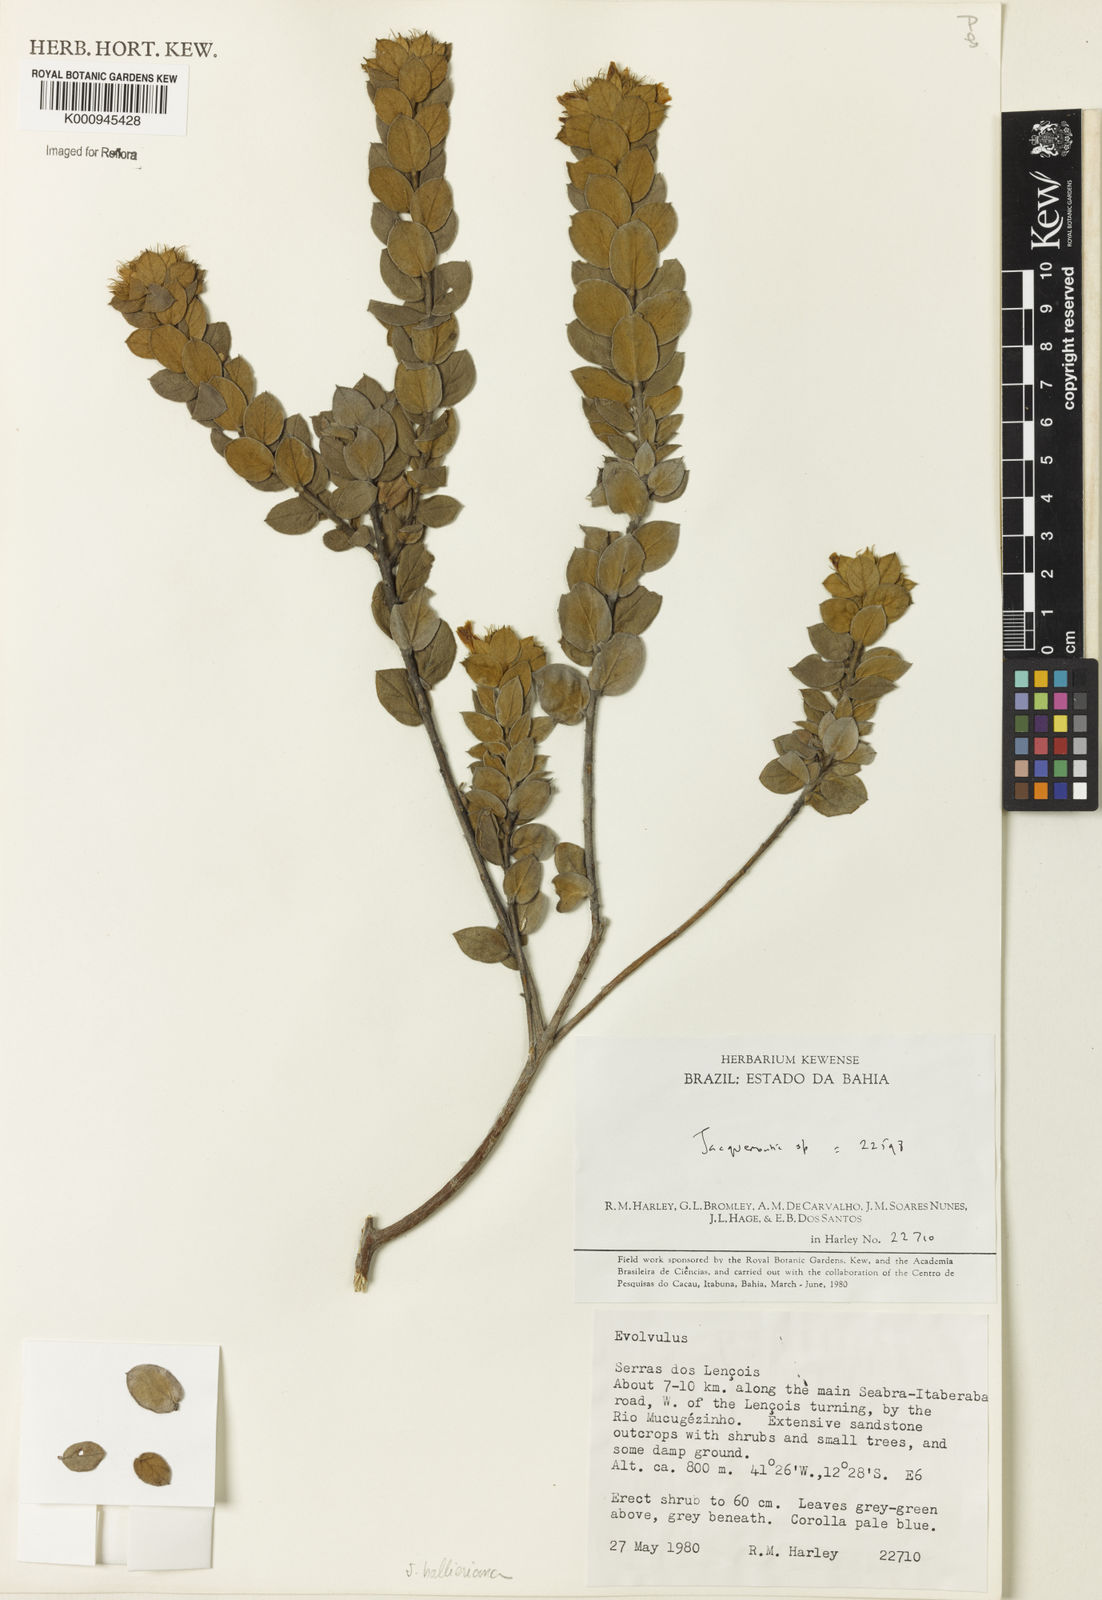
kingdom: Plantae
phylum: Tracheophyta
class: Magnoliopsida
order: Solanales
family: Convolvulaceae
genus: Jacquemontia
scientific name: Jacquemontia
